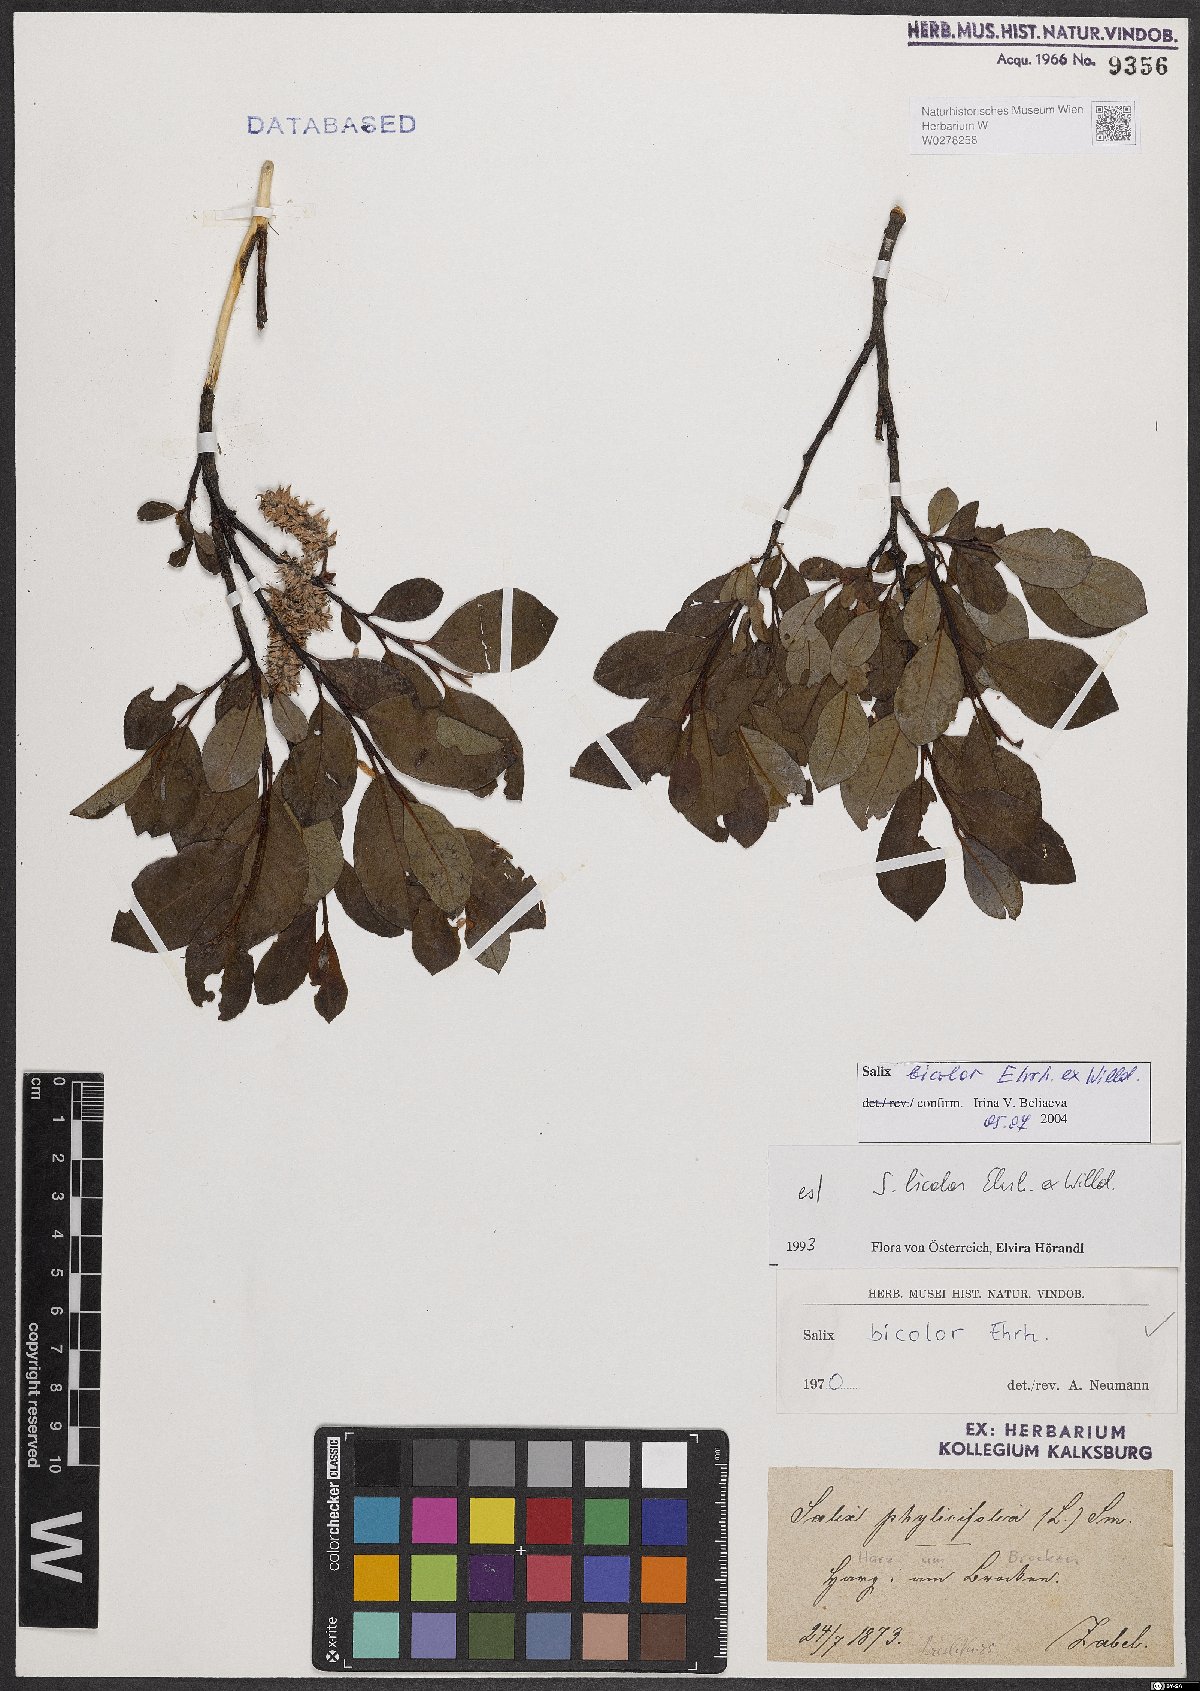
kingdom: Plantae
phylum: Tracheophyta
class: Magnoliopsida
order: Malpighiales
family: Salicaceae
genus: Salix
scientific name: Salix bicolor
